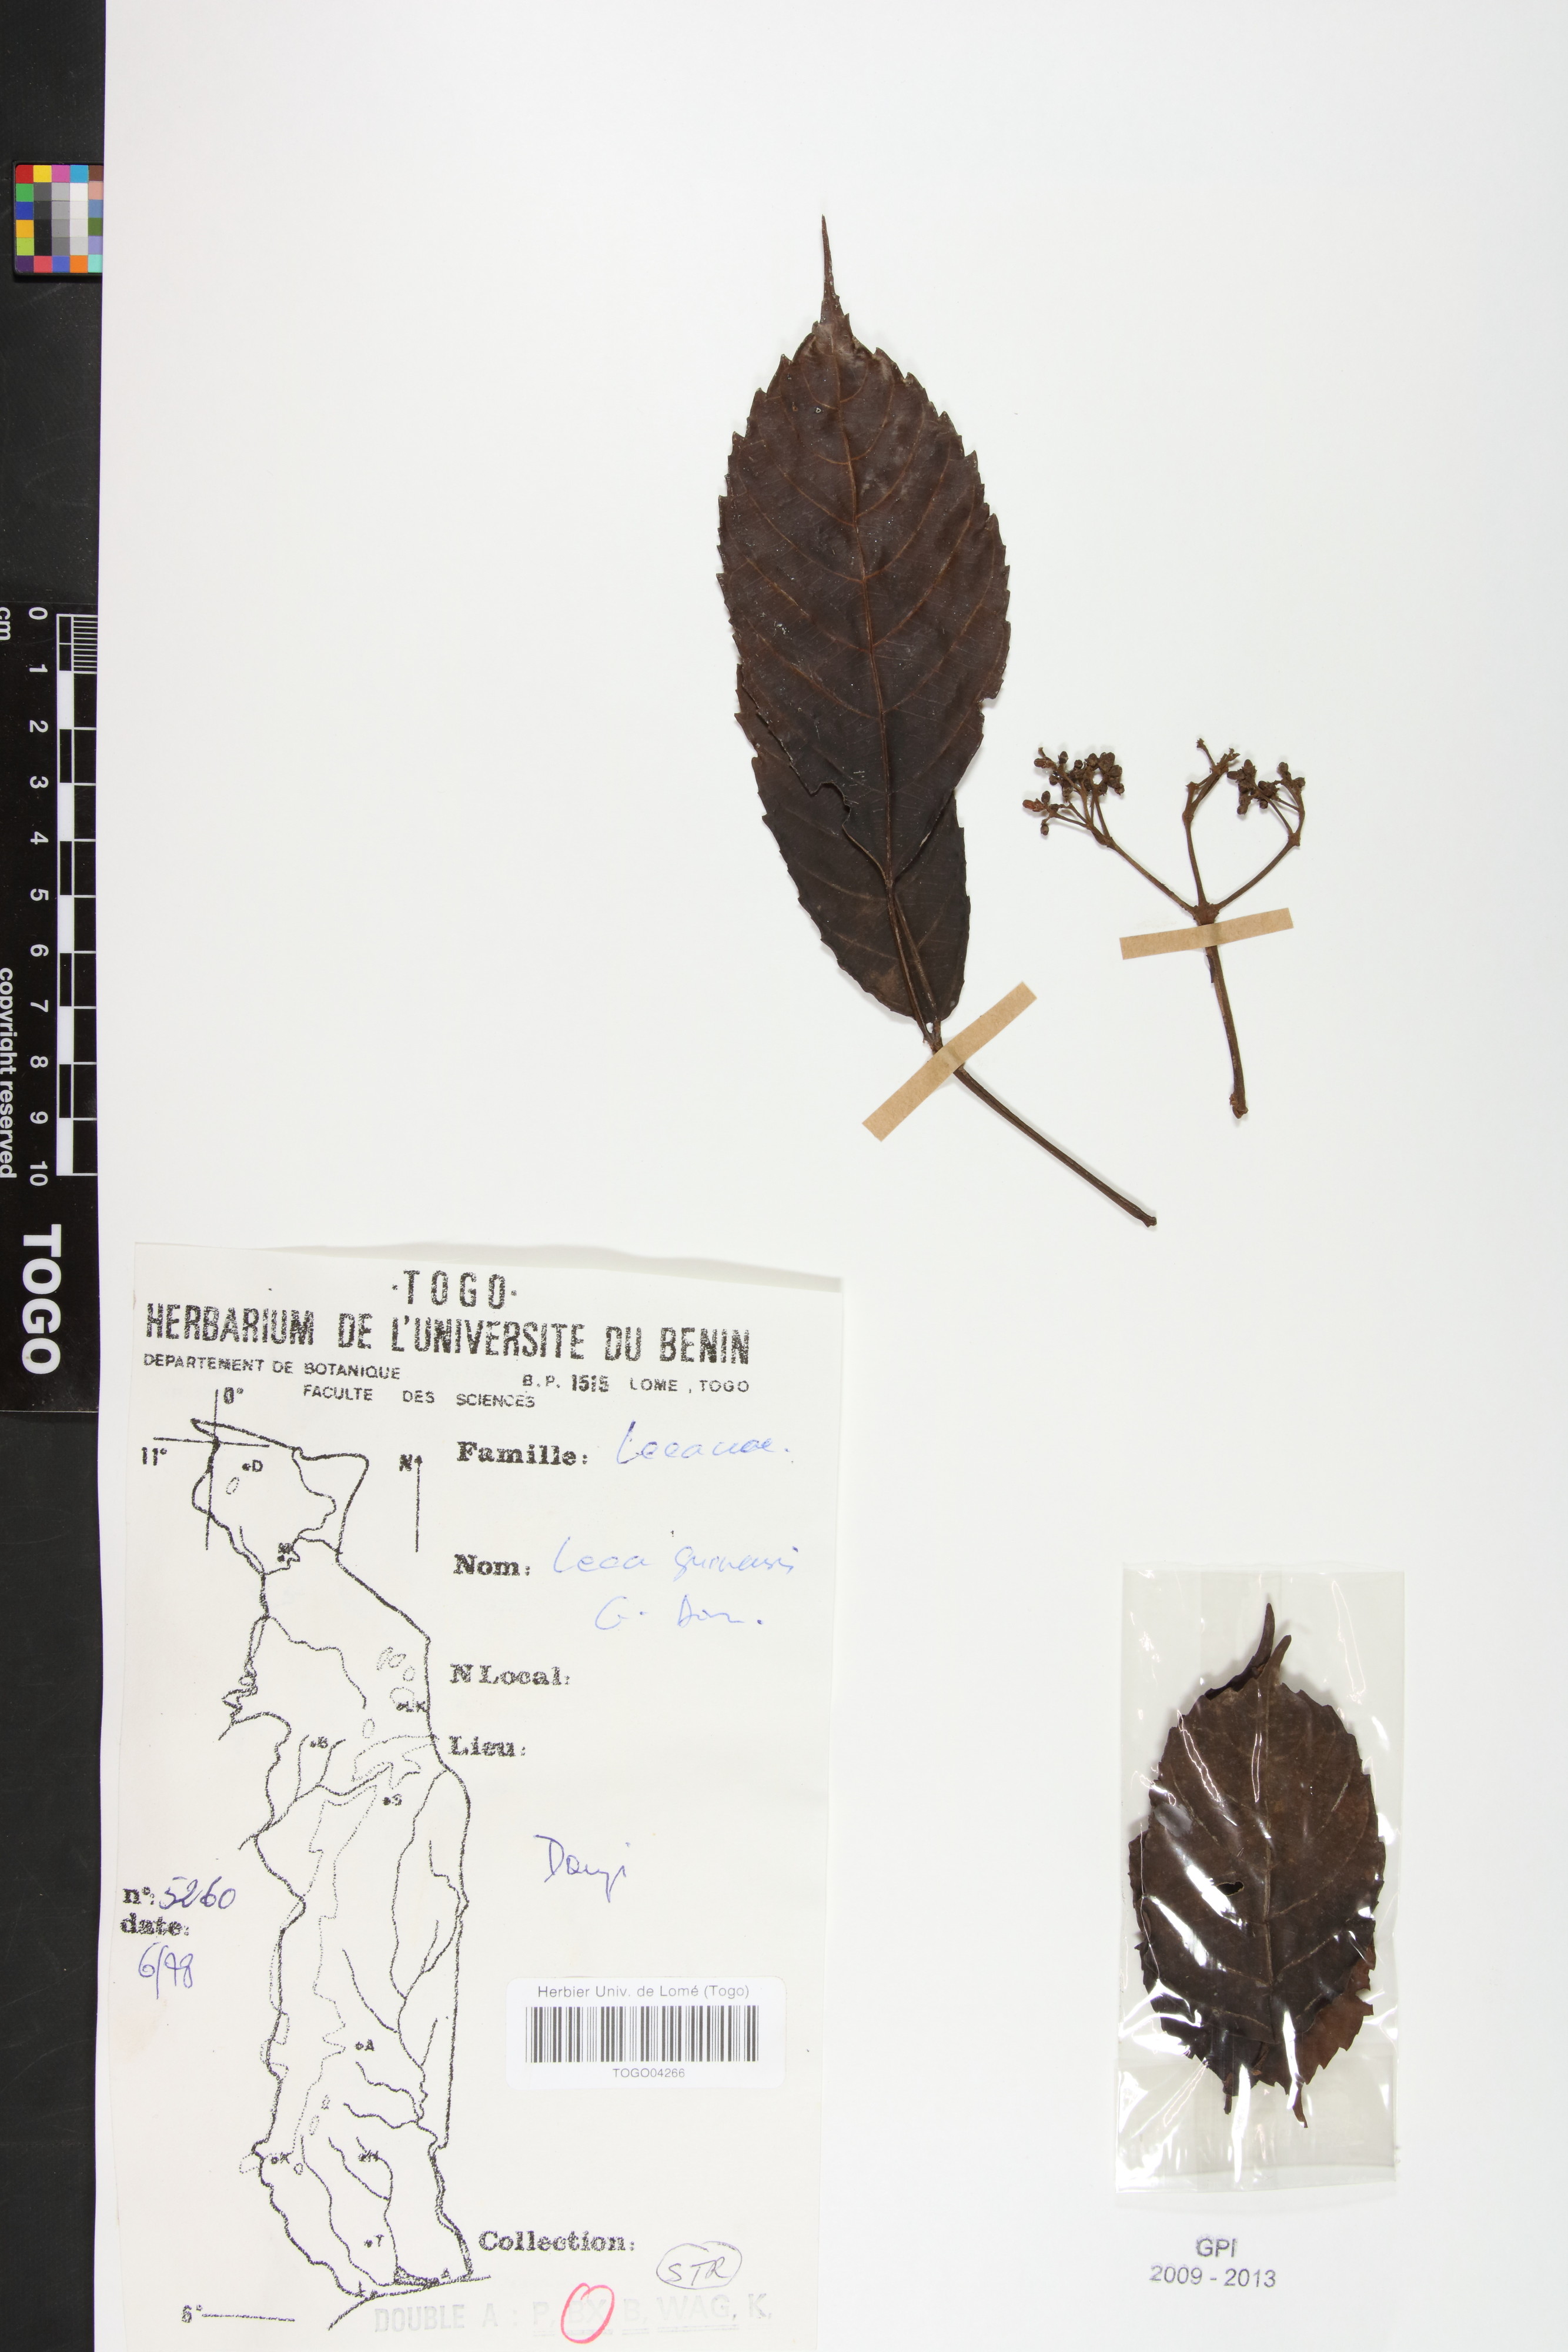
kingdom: Plantae
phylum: Tracheophyta
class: Magnoliopsida
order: Vitales
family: Vitaceae
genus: Leea
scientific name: Leea guineensis
